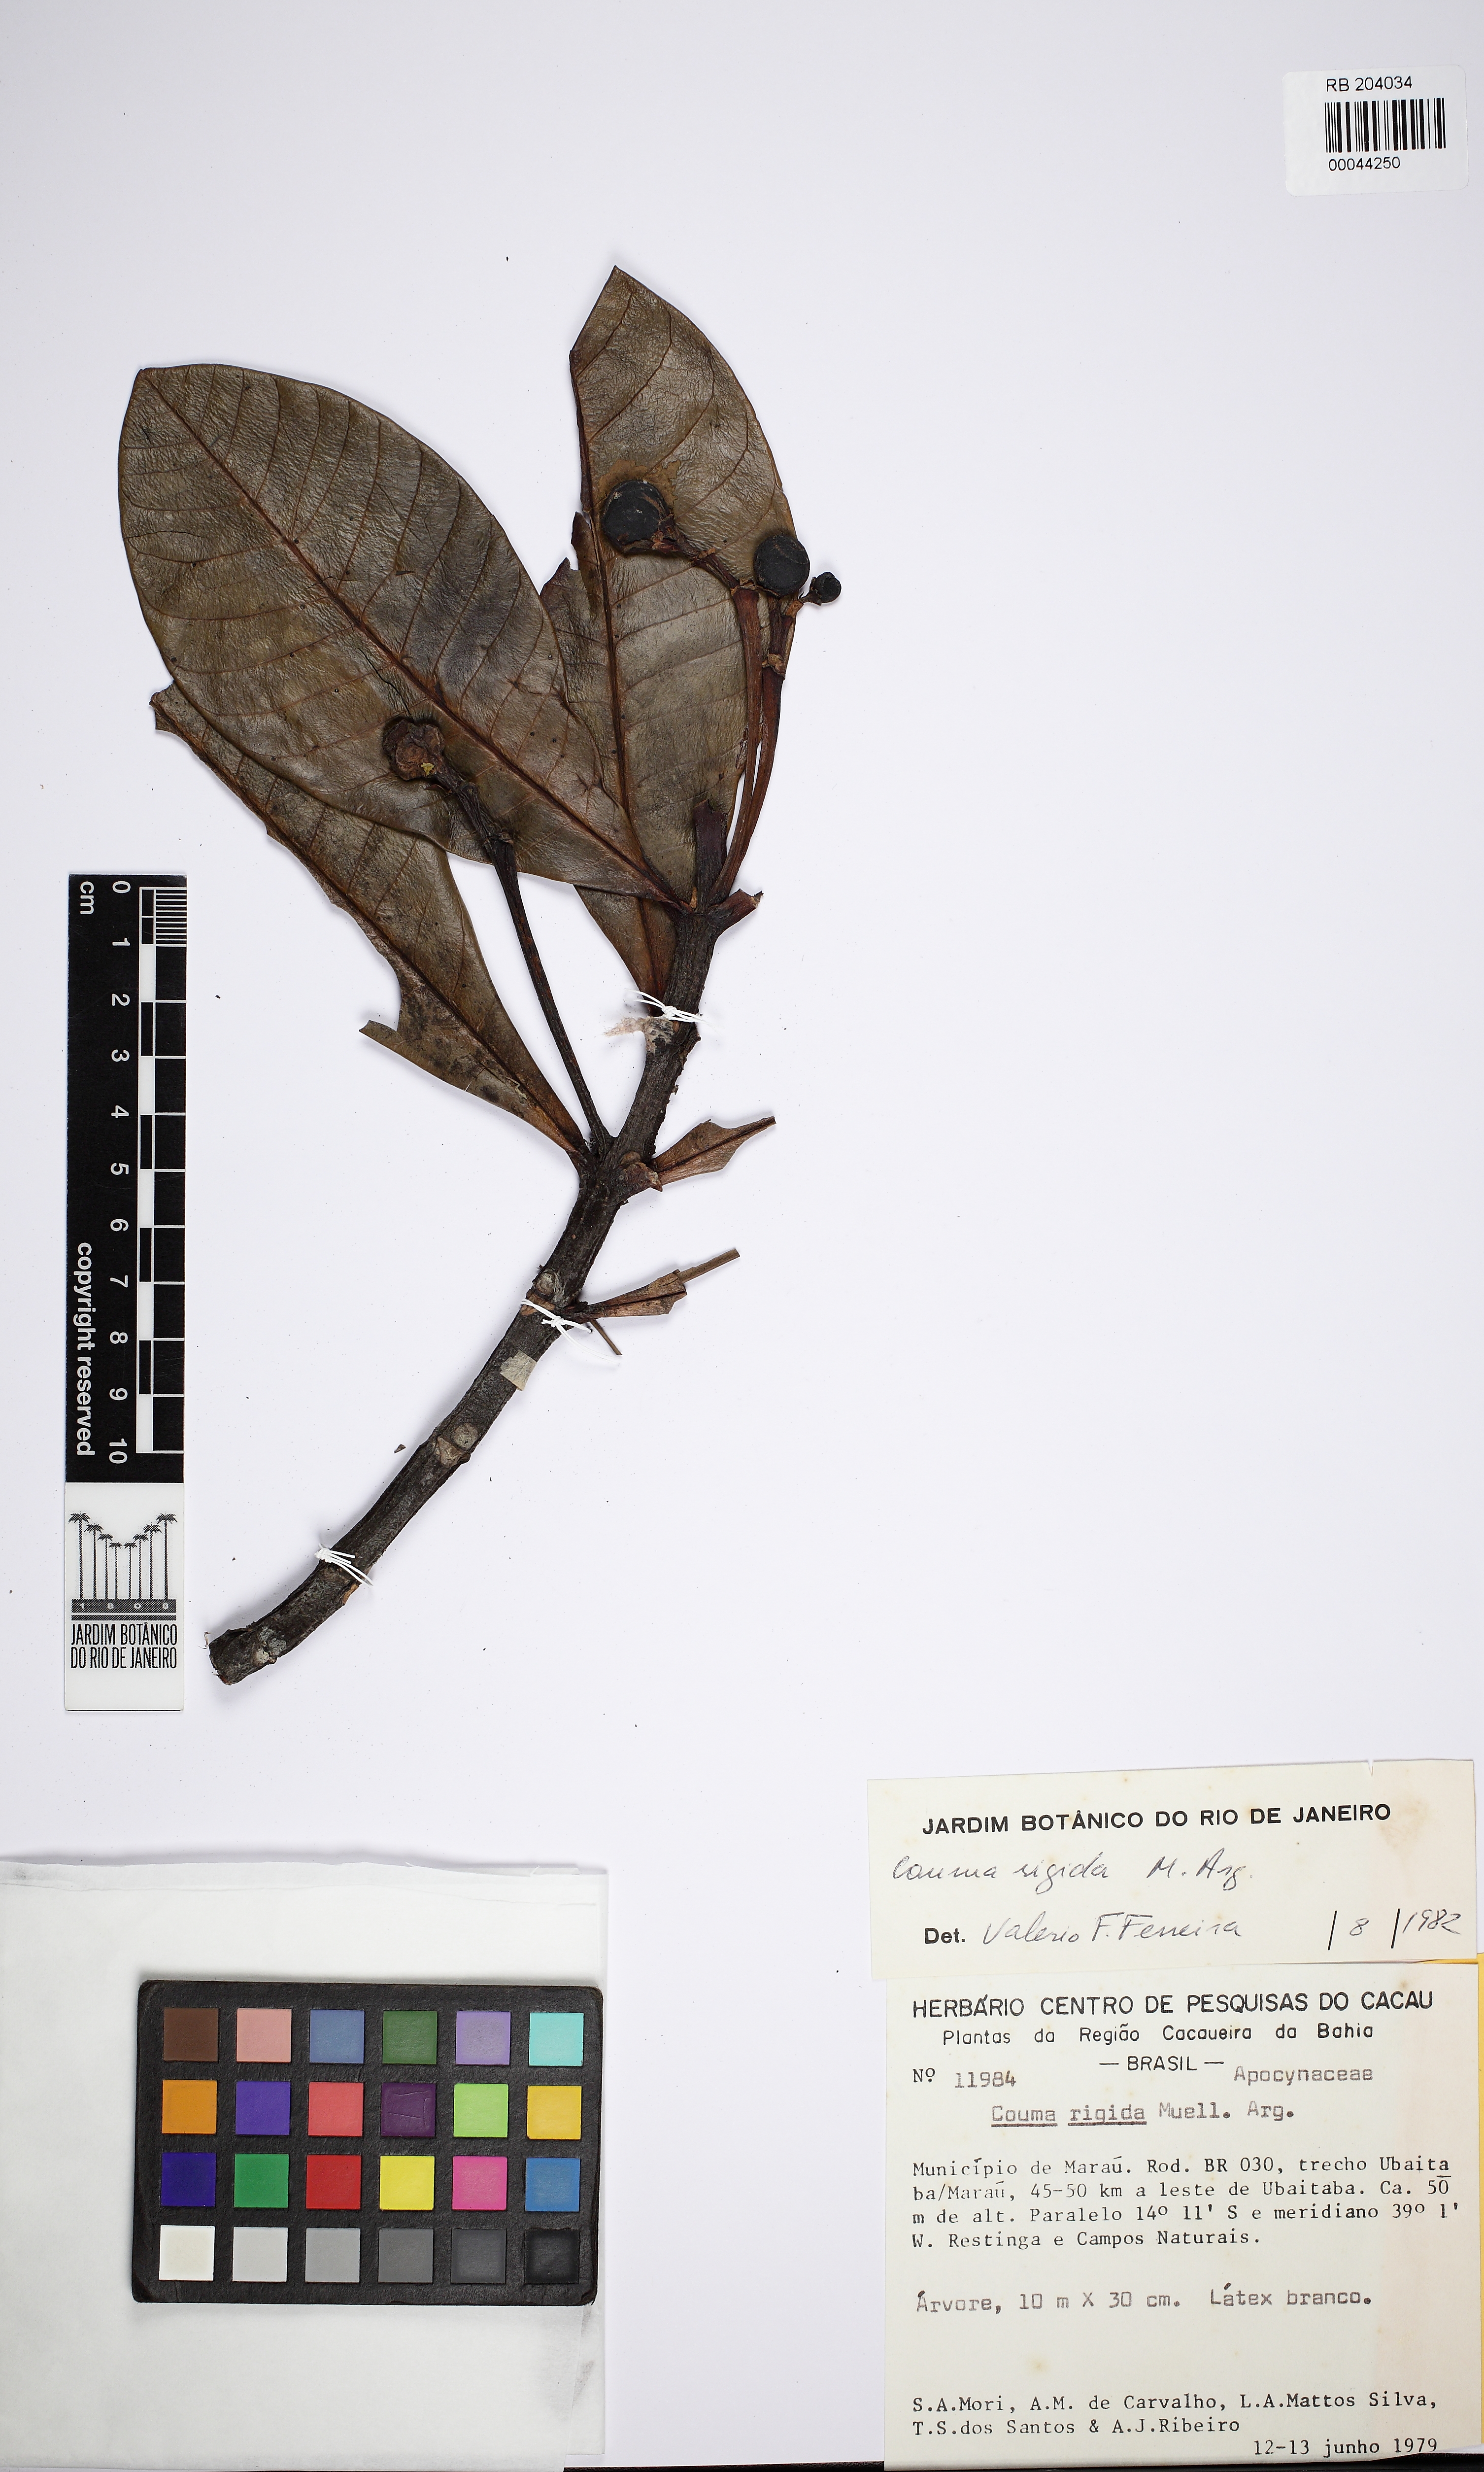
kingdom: Plantae
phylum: Tracheophyta
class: Magnoliopsida
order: Gentianales
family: Apocynaceae
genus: Couma
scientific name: Couma rigida
